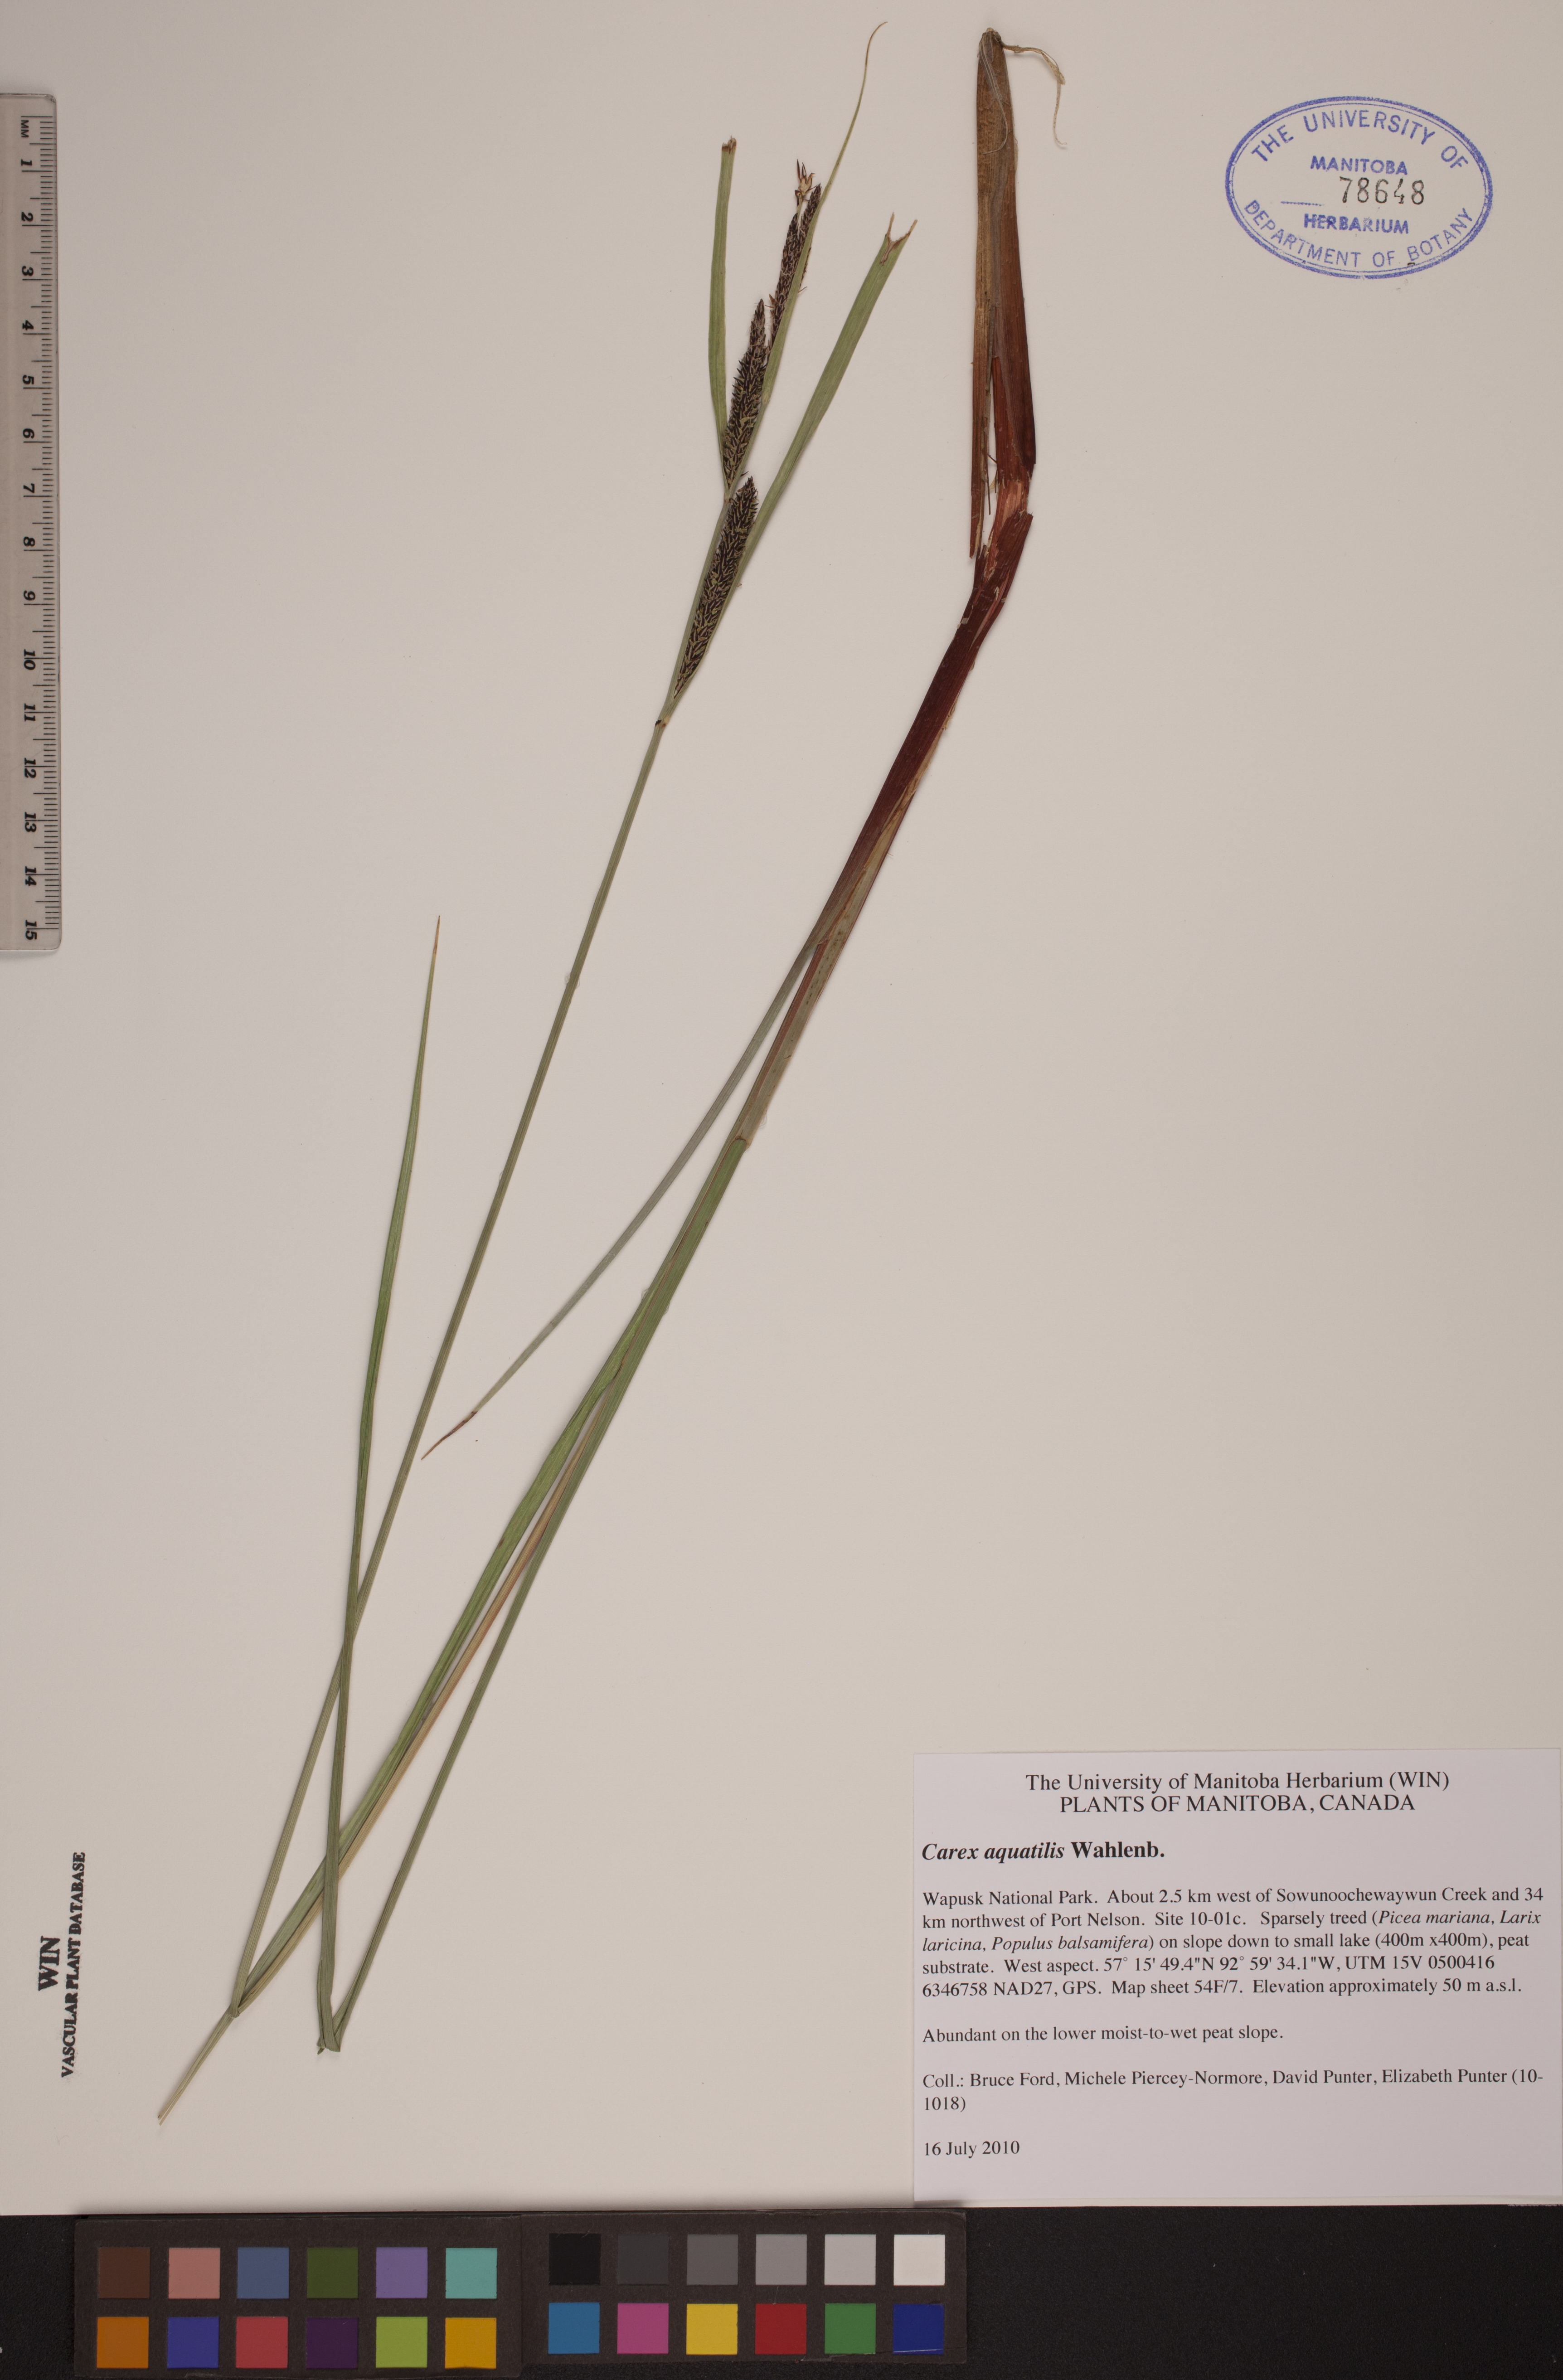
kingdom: Plantae
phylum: Tracheophyta
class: Liliopsida
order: Poales
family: Cyperaceae
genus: Carex
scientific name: Carex aquatilis
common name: Water sedge
